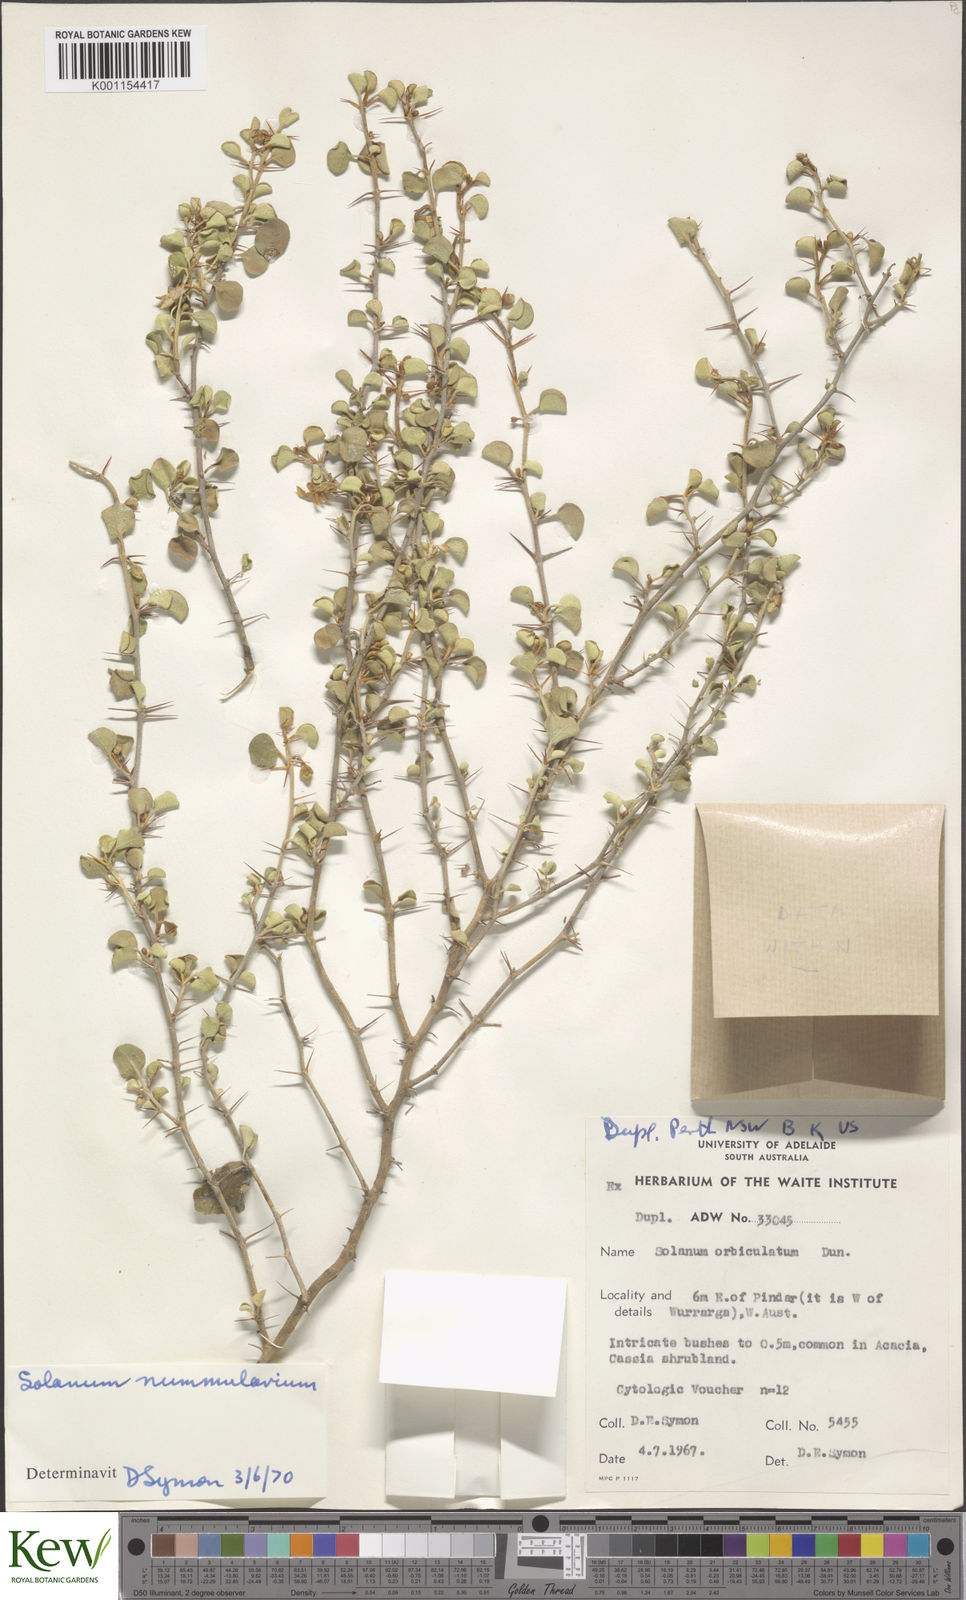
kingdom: Plantae
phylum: Tracheophyta
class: Magnoliopsida
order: Solanales
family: Solanaceae
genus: Solanum
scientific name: Solanum nummularium
